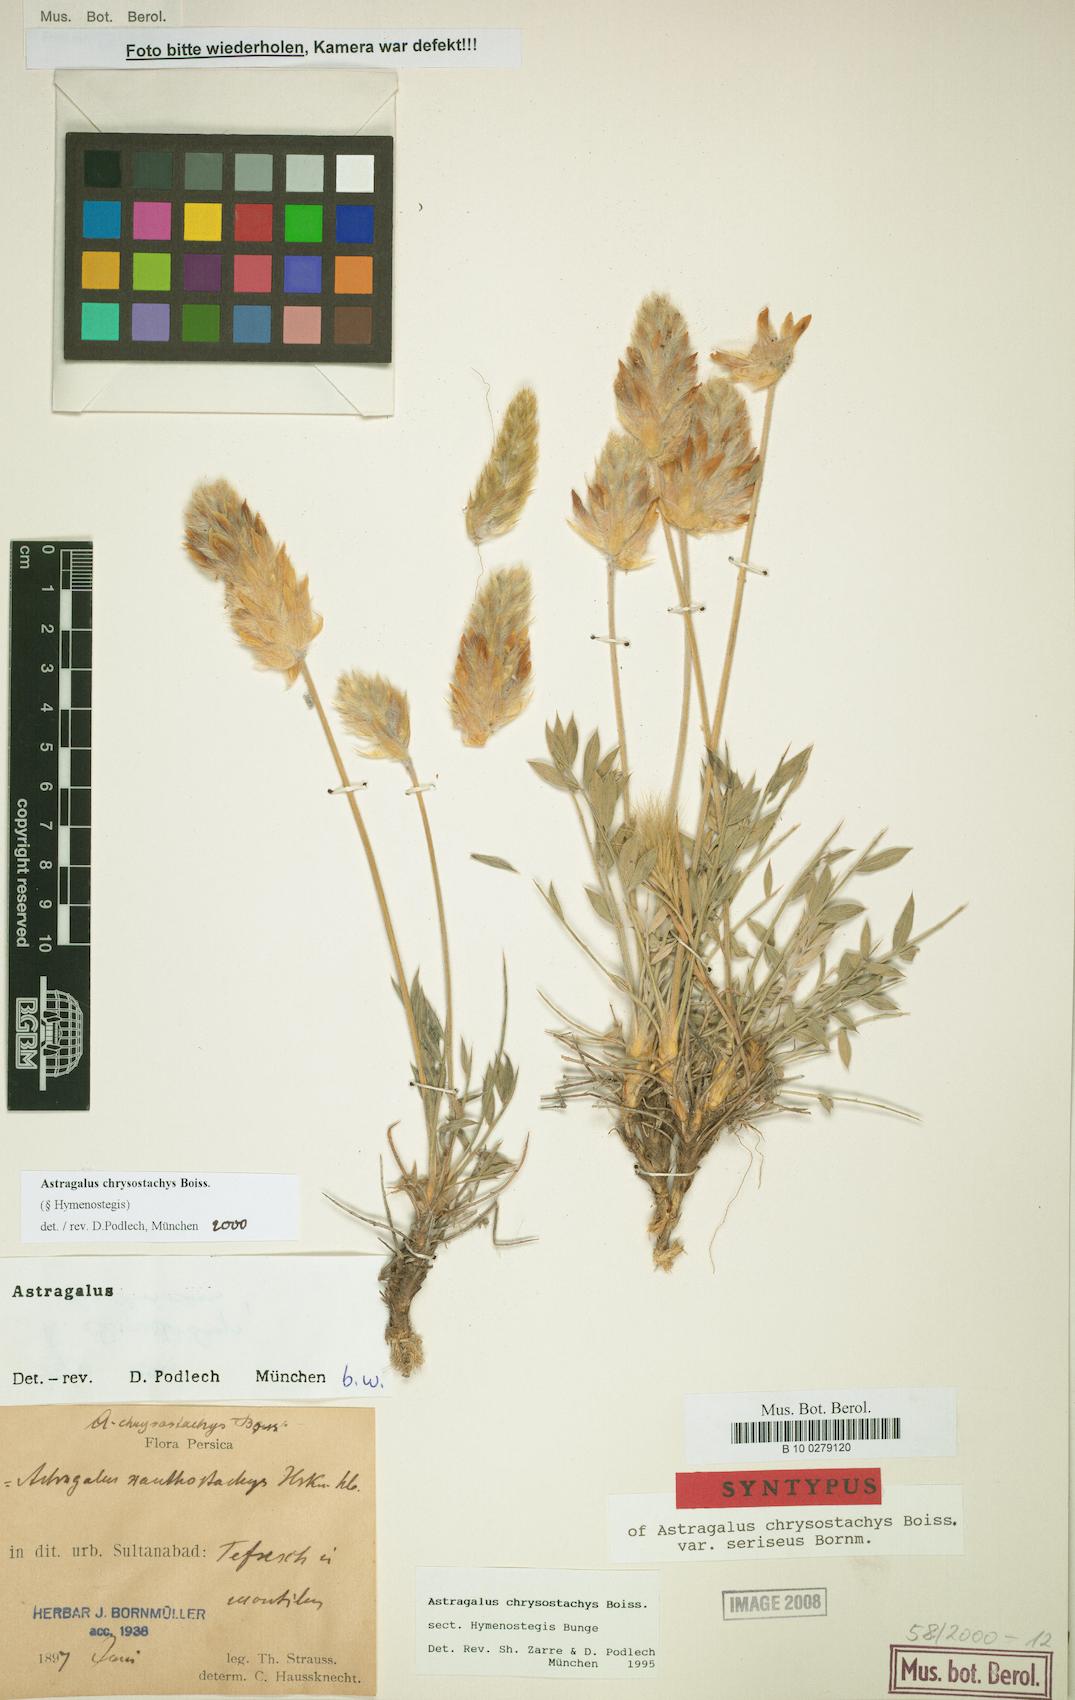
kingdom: Plantae
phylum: Tracheophyta
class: Magnoliopsida
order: Fabales
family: Fabaceae
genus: Astragalus
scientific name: Astragalus chrysostachys
